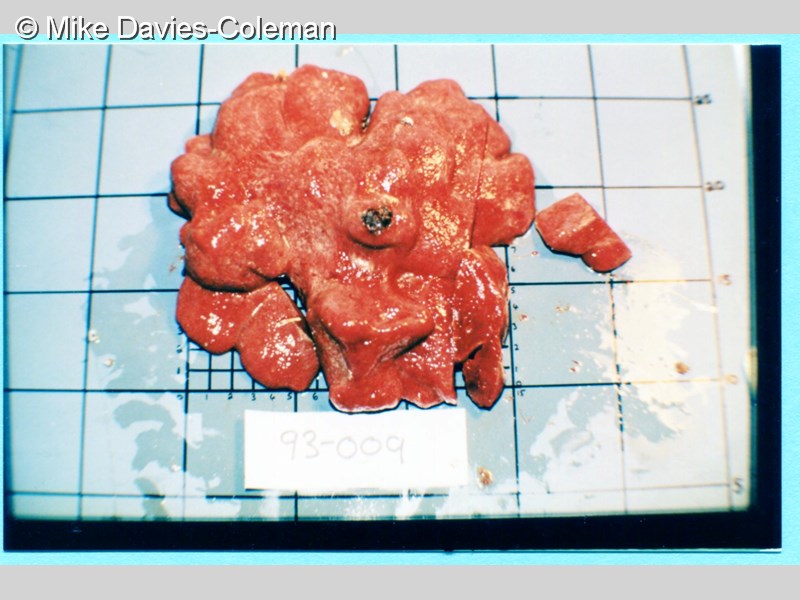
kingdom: Animalia
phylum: Chordata
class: Ascidiacea
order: Aplousobranchia
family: Pseudodistomidae
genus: Pseudodistoma
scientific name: Pseudodistoma
